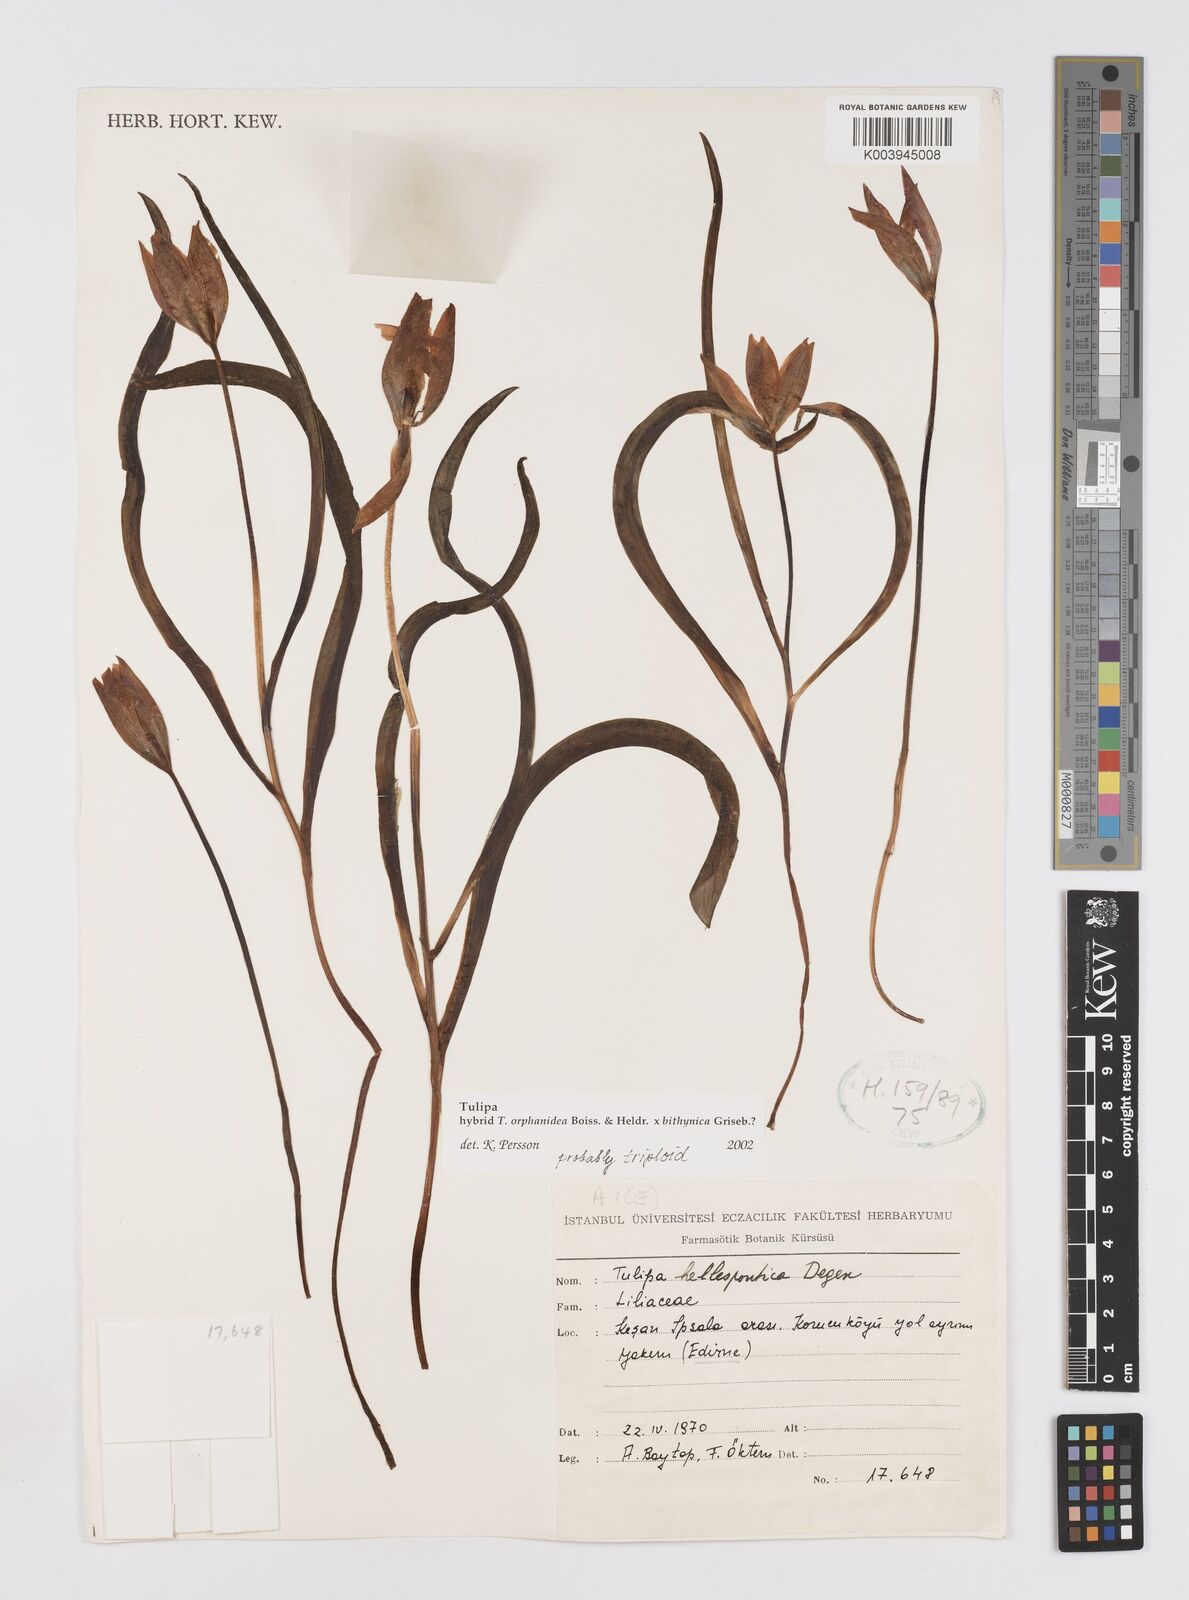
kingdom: Plantae
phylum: Tracheophyta
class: Liliopsida
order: Liliales
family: Liliaceae
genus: Tulipa
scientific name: Tulipa orphanidea
